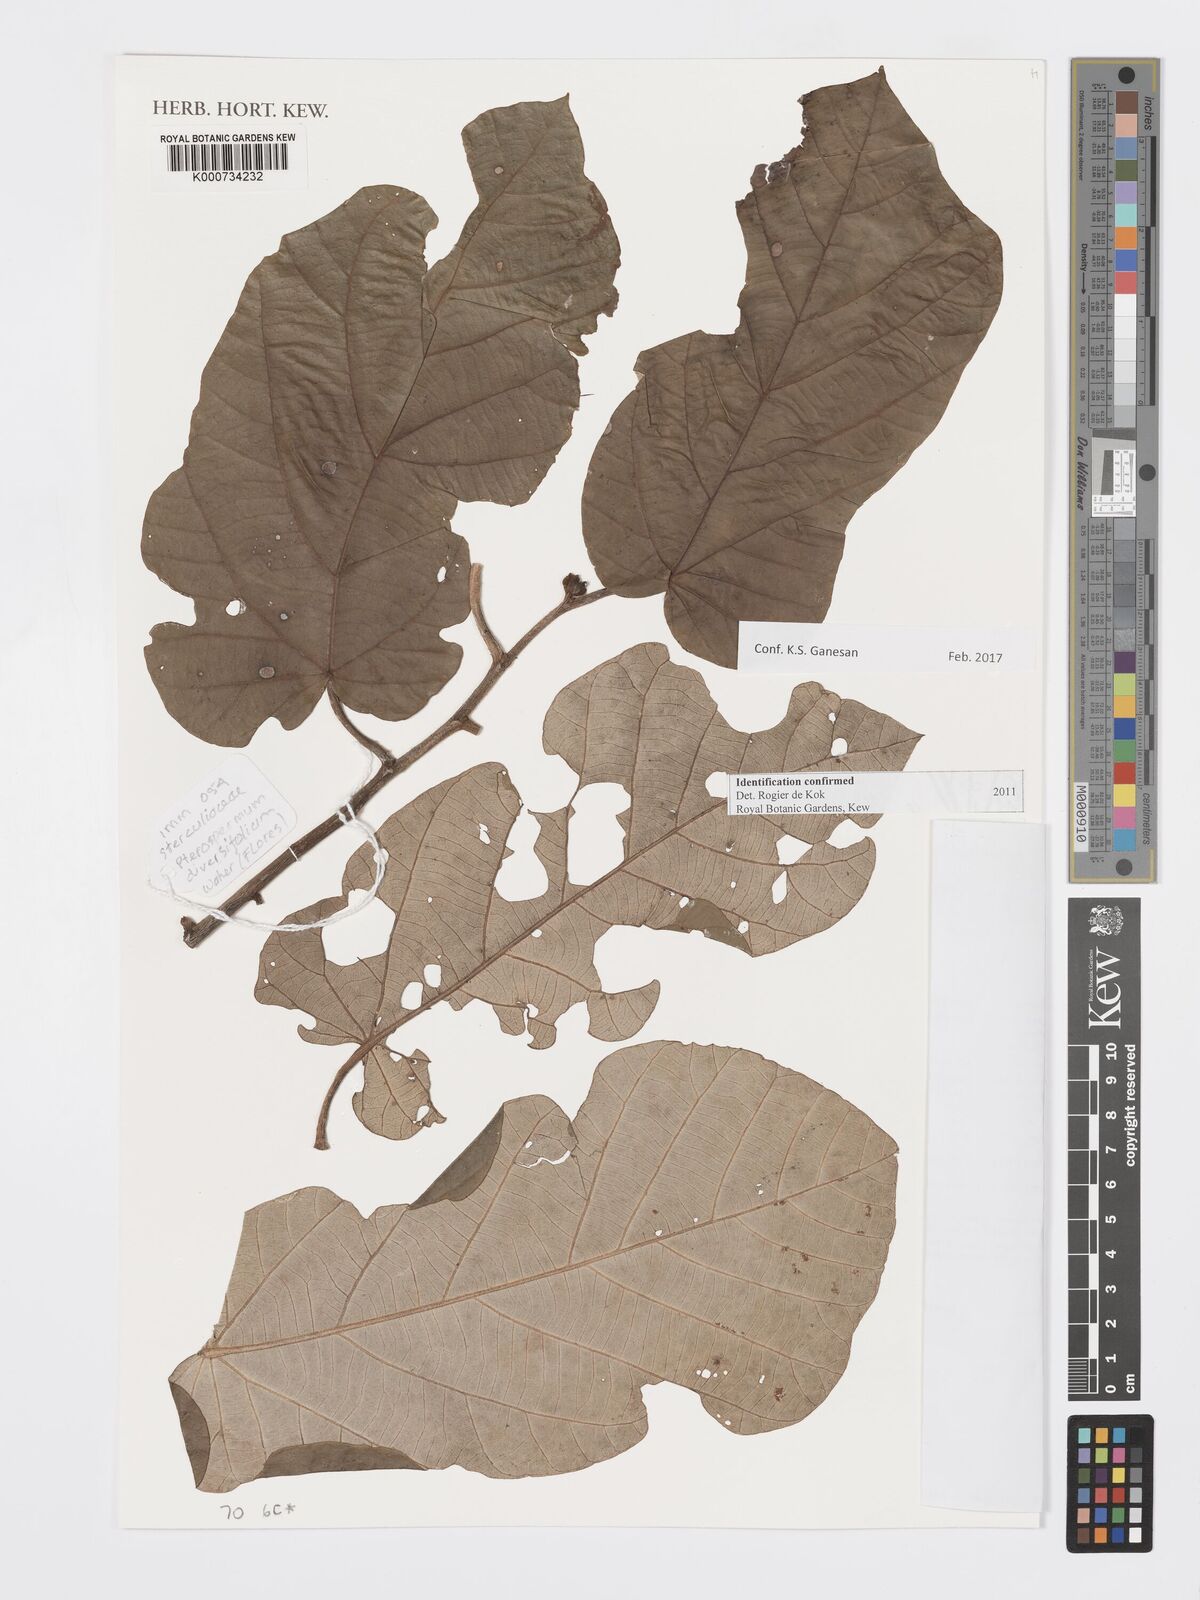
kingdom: Plantae
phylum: Tracheophyta
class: Magnoliopsida
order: Malvales
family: Malvaceae
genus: Pterospermum
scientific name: Pterospermum diversifolium
